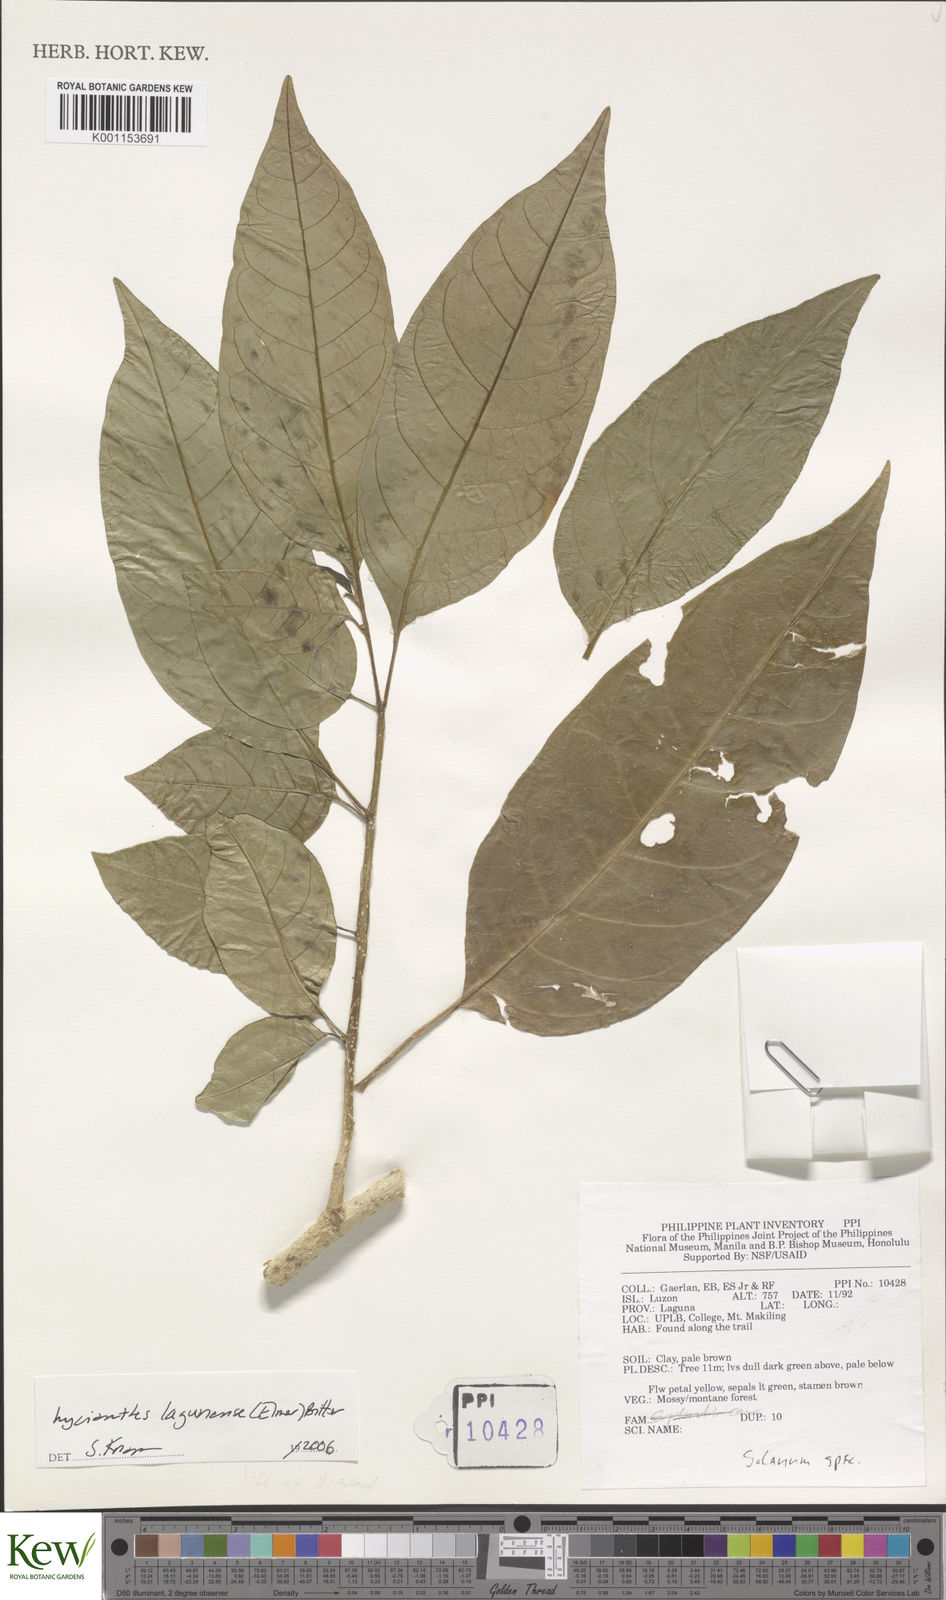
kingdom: Plantae
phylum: Tracheophyta
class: Magnoliopsida
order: Solanales
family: Solanaceae
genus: Lycianthes
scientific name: Lycianthes lagunensis
